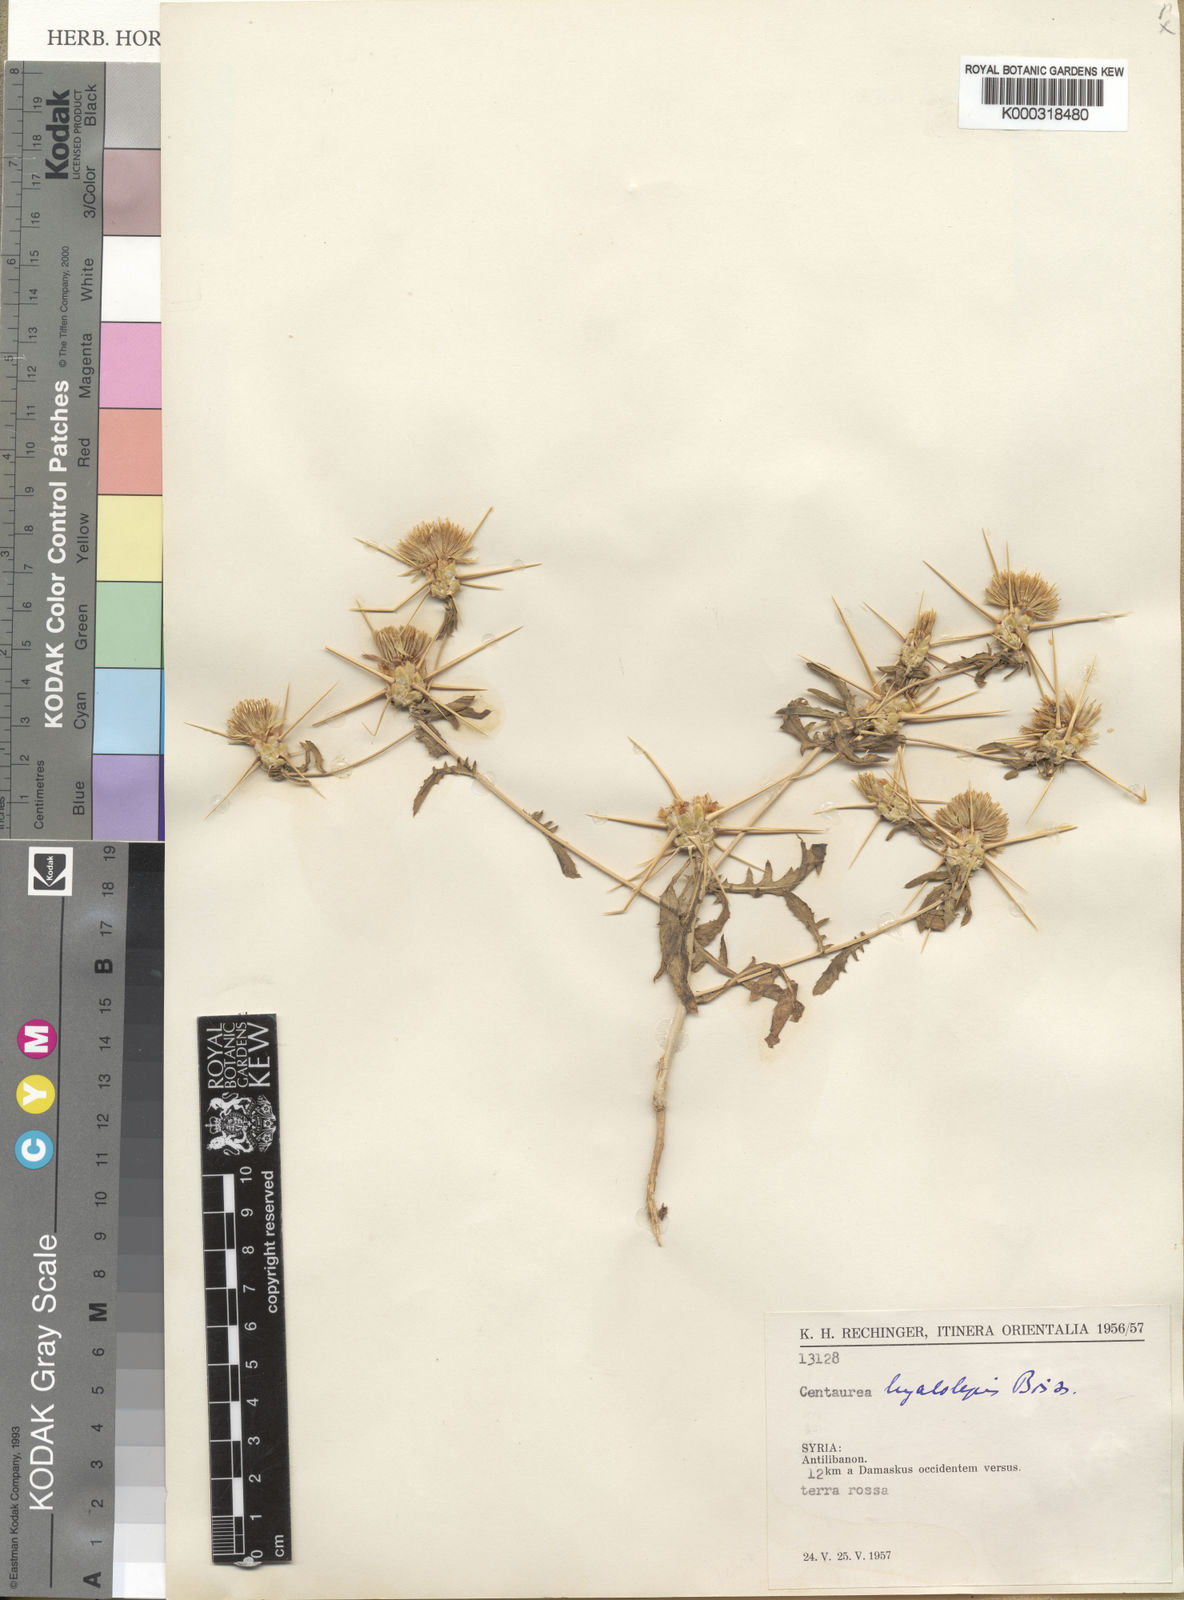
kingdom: Plantae
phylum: Tracheophyta
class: Magnoliopsida
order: Asterales
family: Asteraceae
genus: Centaurea
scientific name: Centaurea hyalolepis
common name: Eastern star-thistle
